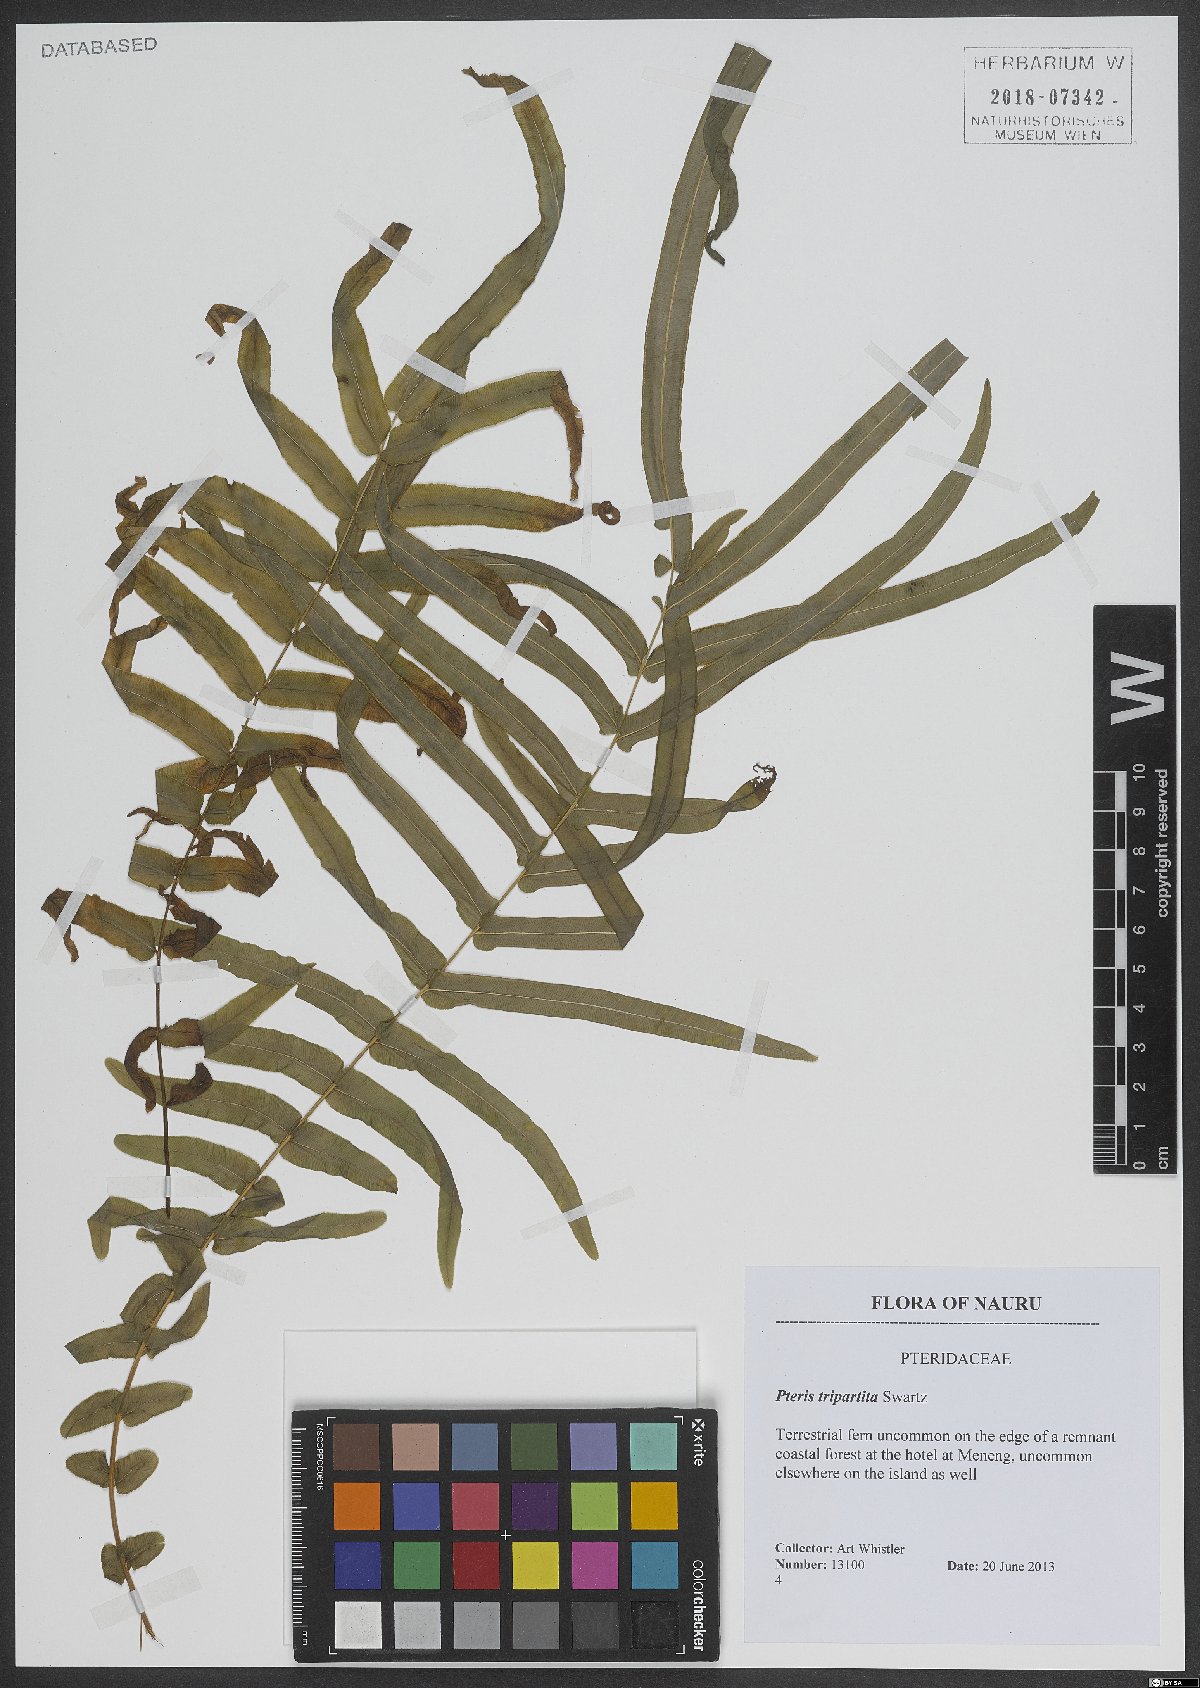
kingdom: Plantae
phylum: Tracheophyta
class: Polypodiopsida
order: Polypodiales
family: Pteridaceae
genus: Pteris
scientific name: Pteris tripartita
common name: Giant brake
